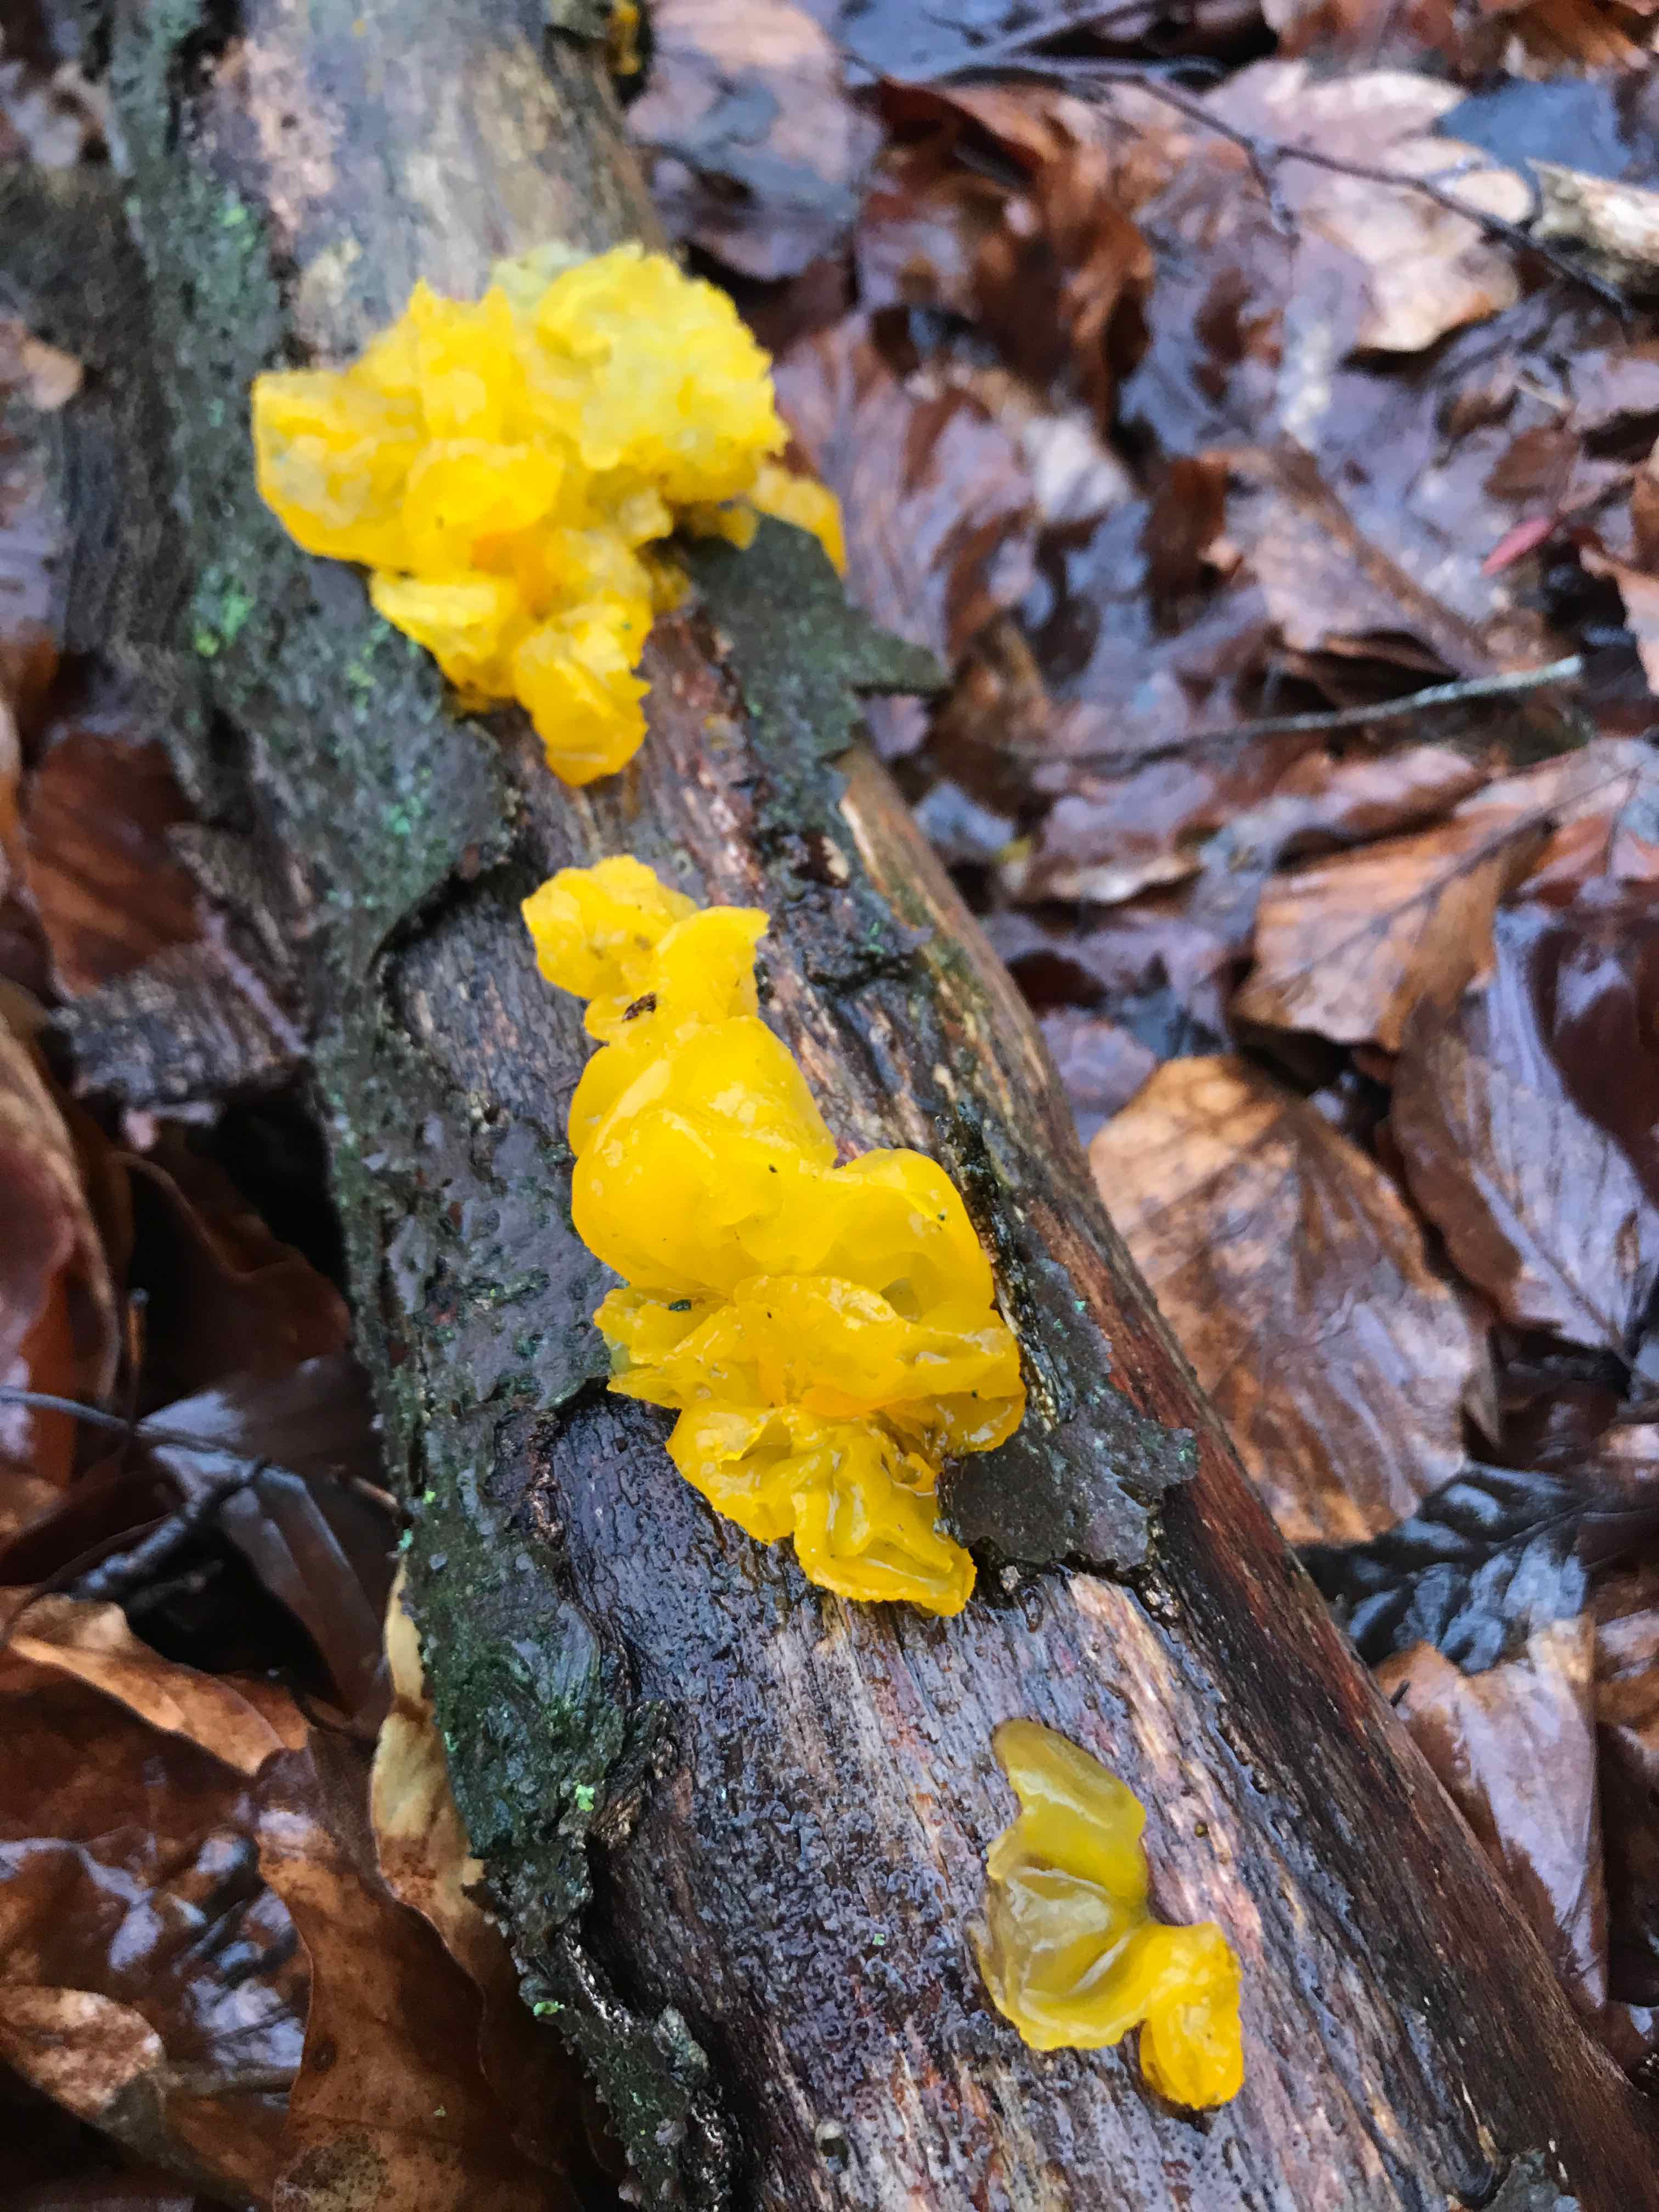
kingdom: Fungi
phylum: Basidiomycota
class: Tremellomycetes
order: Tremellales
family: Tremellaceae
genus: Tremella
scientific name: Tremella mesenterica
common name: gul bævresvamp
